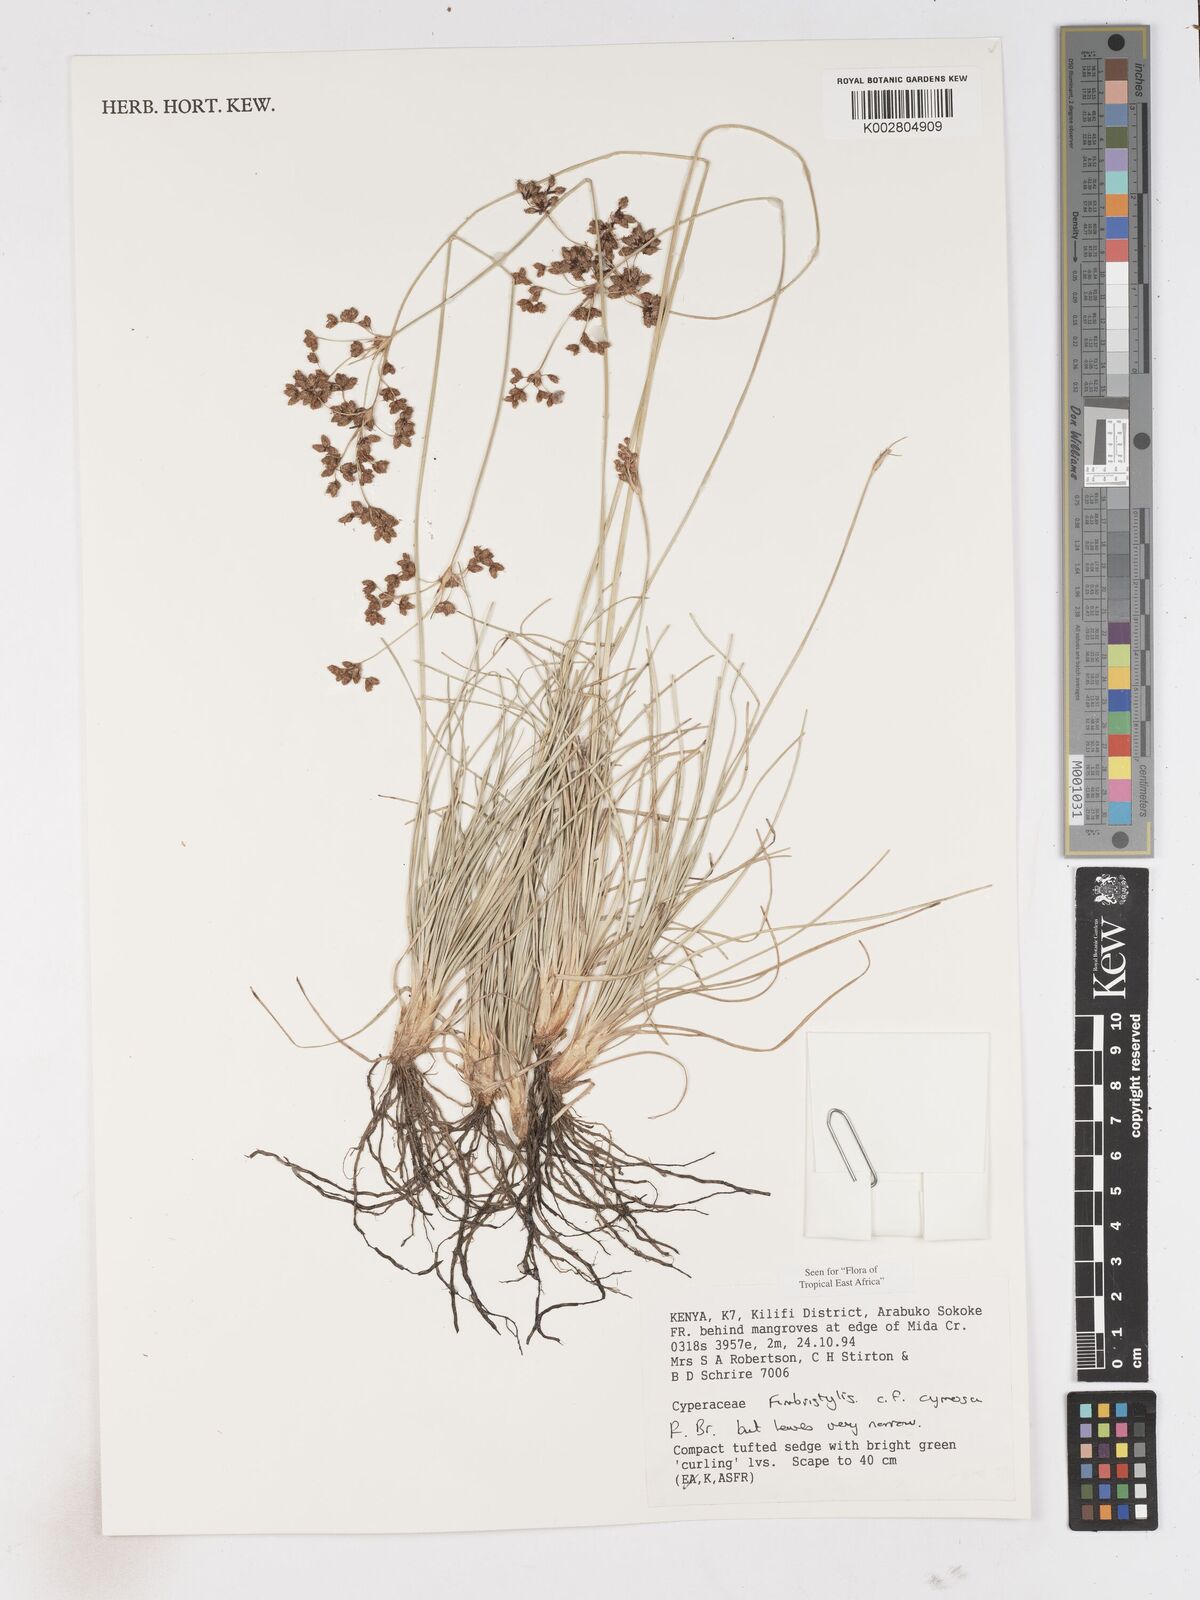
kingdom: Plantae
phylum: Tracheophyta
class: Liliopsida
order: Poales
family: Cyperaceae
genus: Fimbristylis
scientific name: Fimbristylis cymosa
